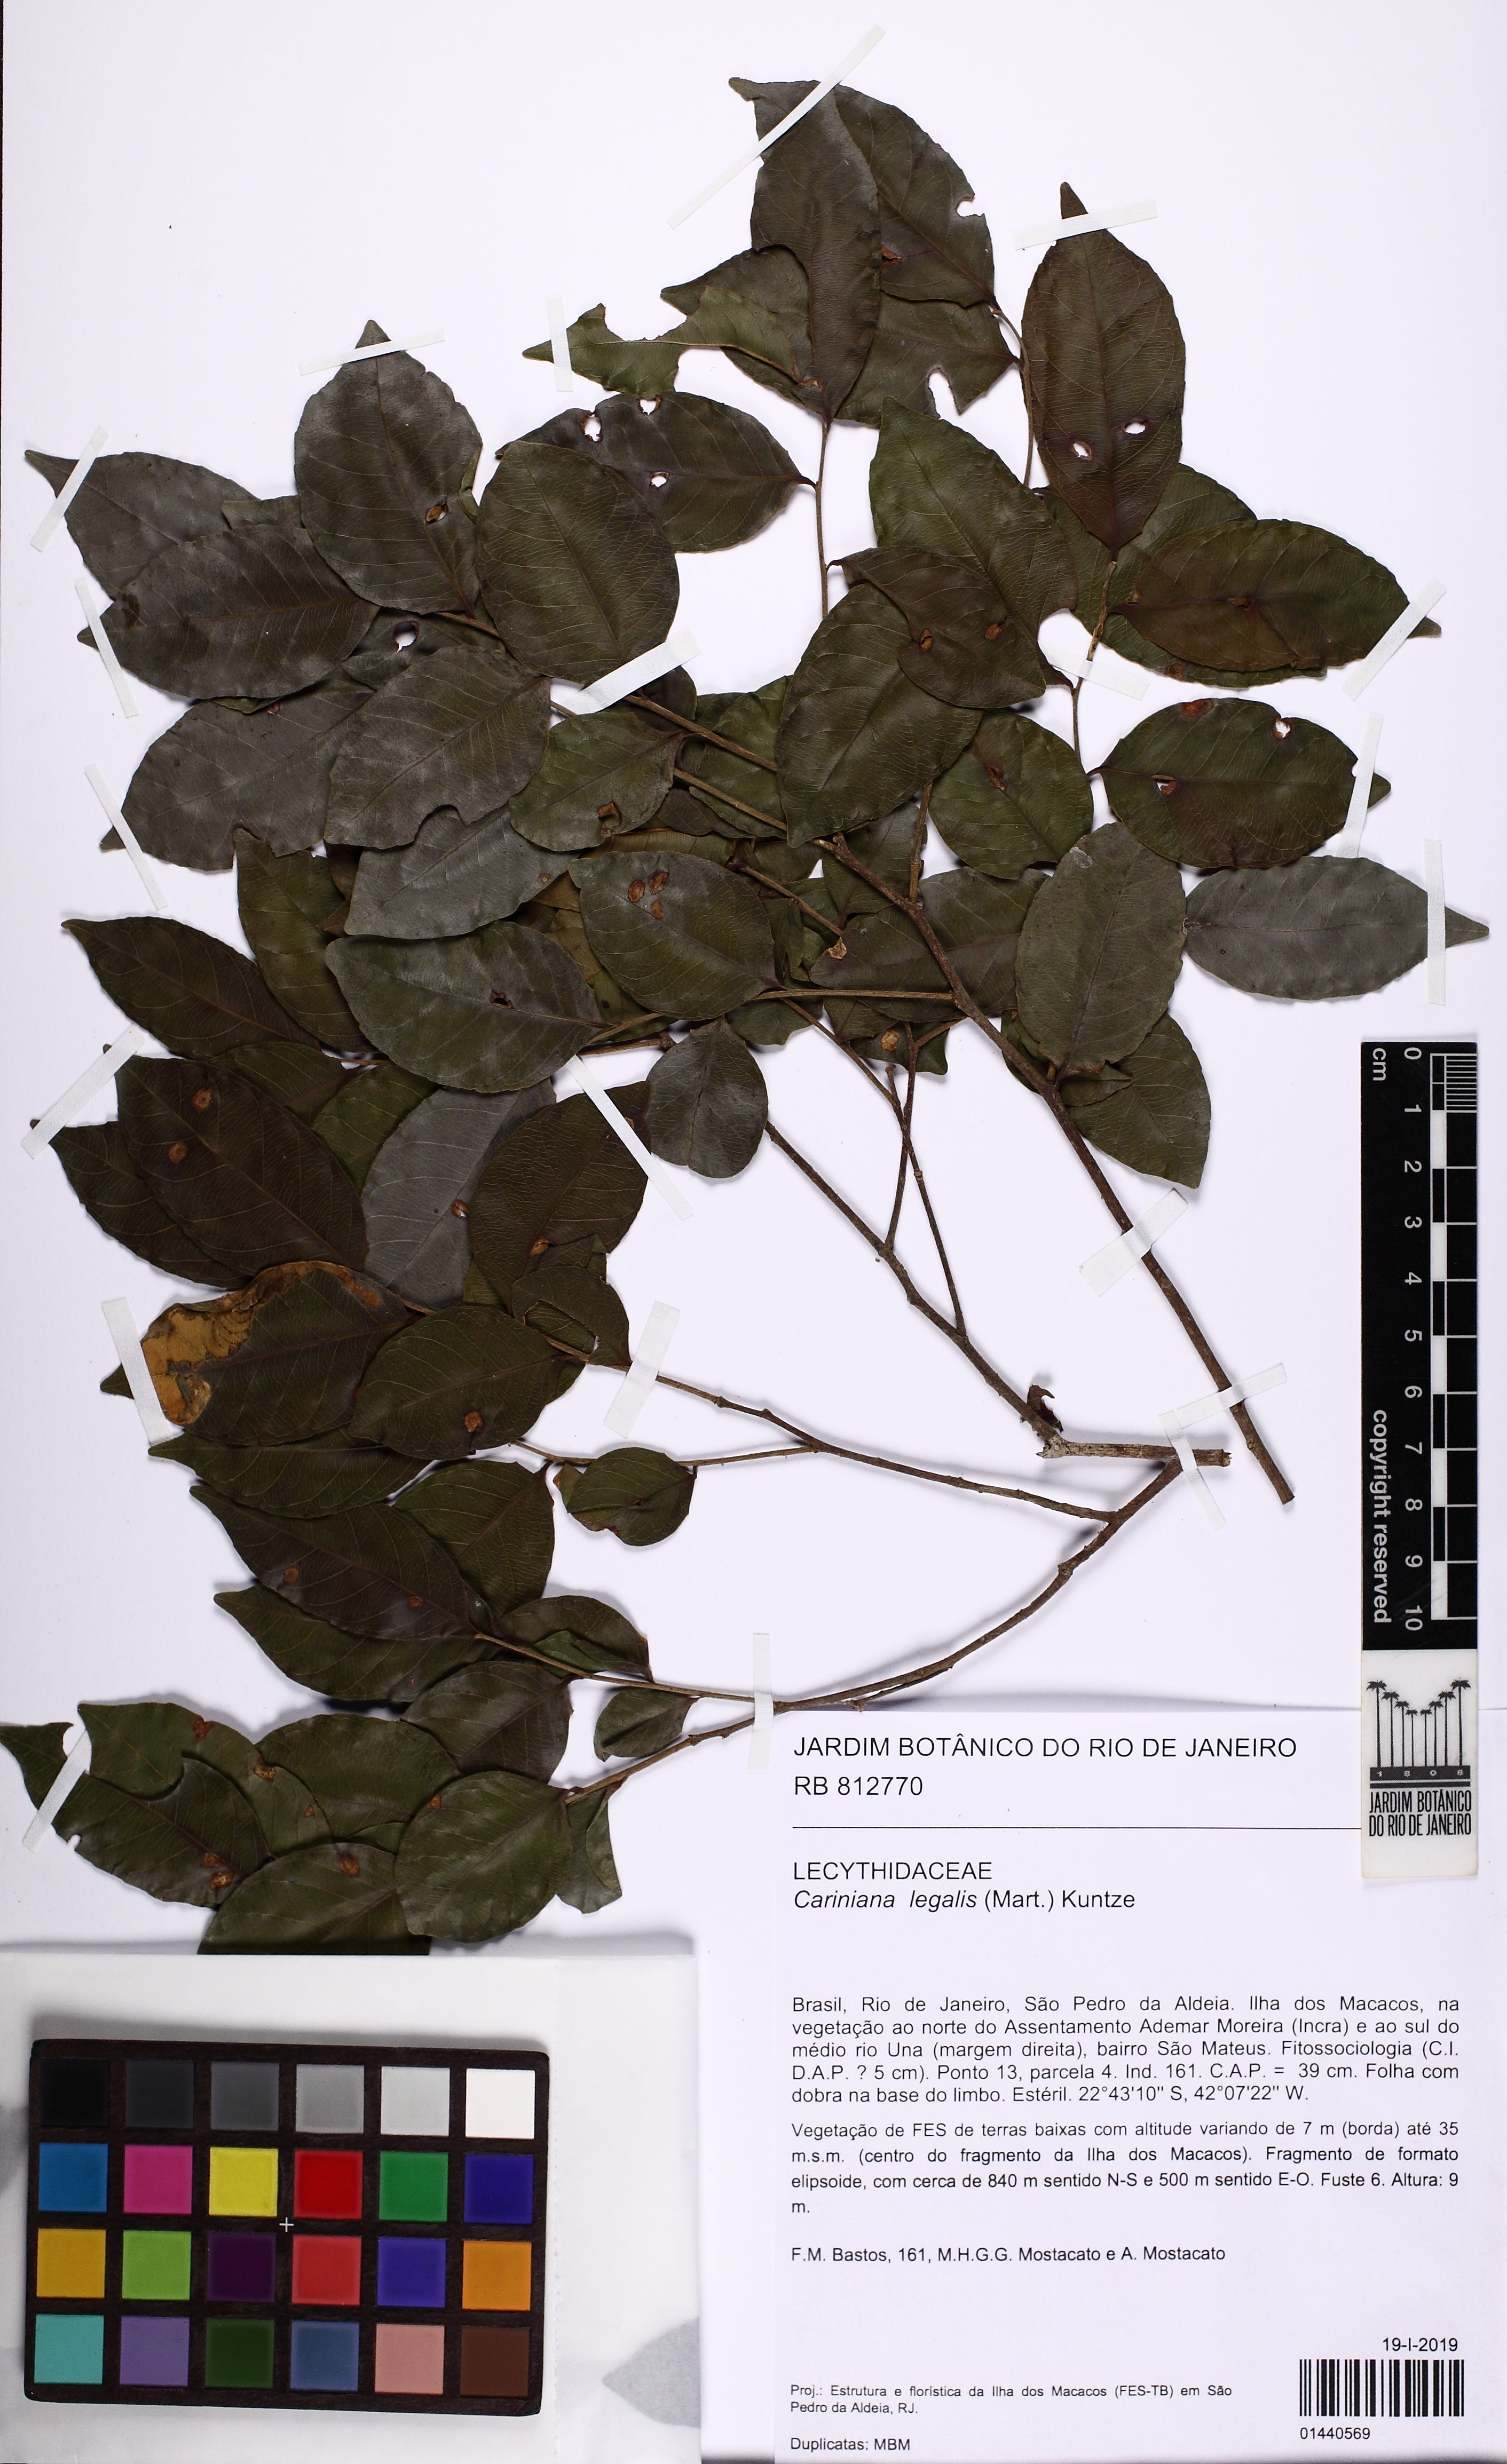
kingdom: Plantae
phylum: Tracheophyta
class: Magnoliopsida
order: Ericales
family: Lecythidaceae
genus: Cariniana
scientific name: Cariniana legalis
